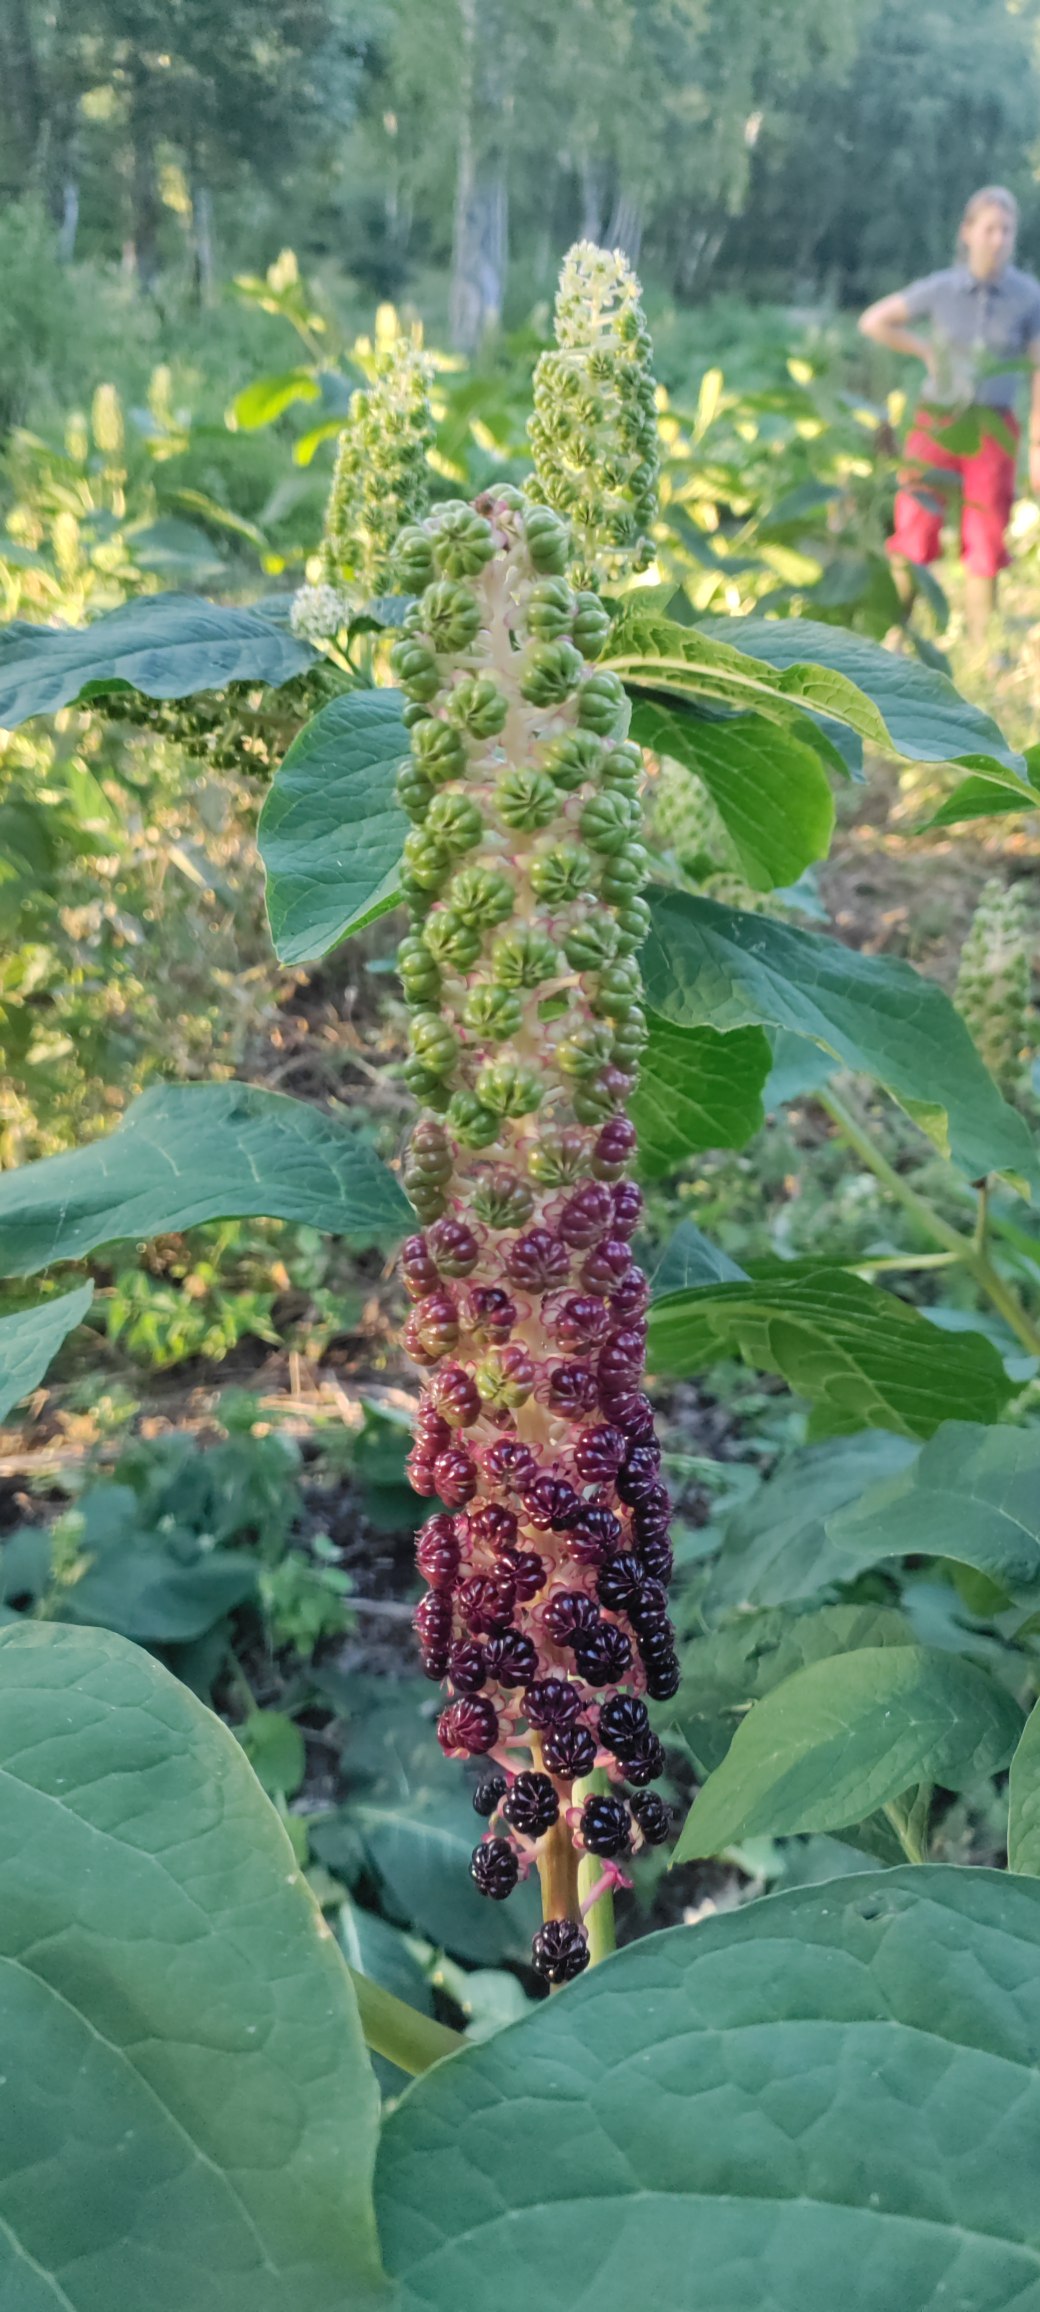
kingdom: Plantae
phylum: Tracheophyta
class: Magnoliopsida
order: Caryophyllales
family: Phytolaccaceae
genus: Phytolacca
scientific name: Phytolacca acinosa
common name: Asiatisk kermesbær
